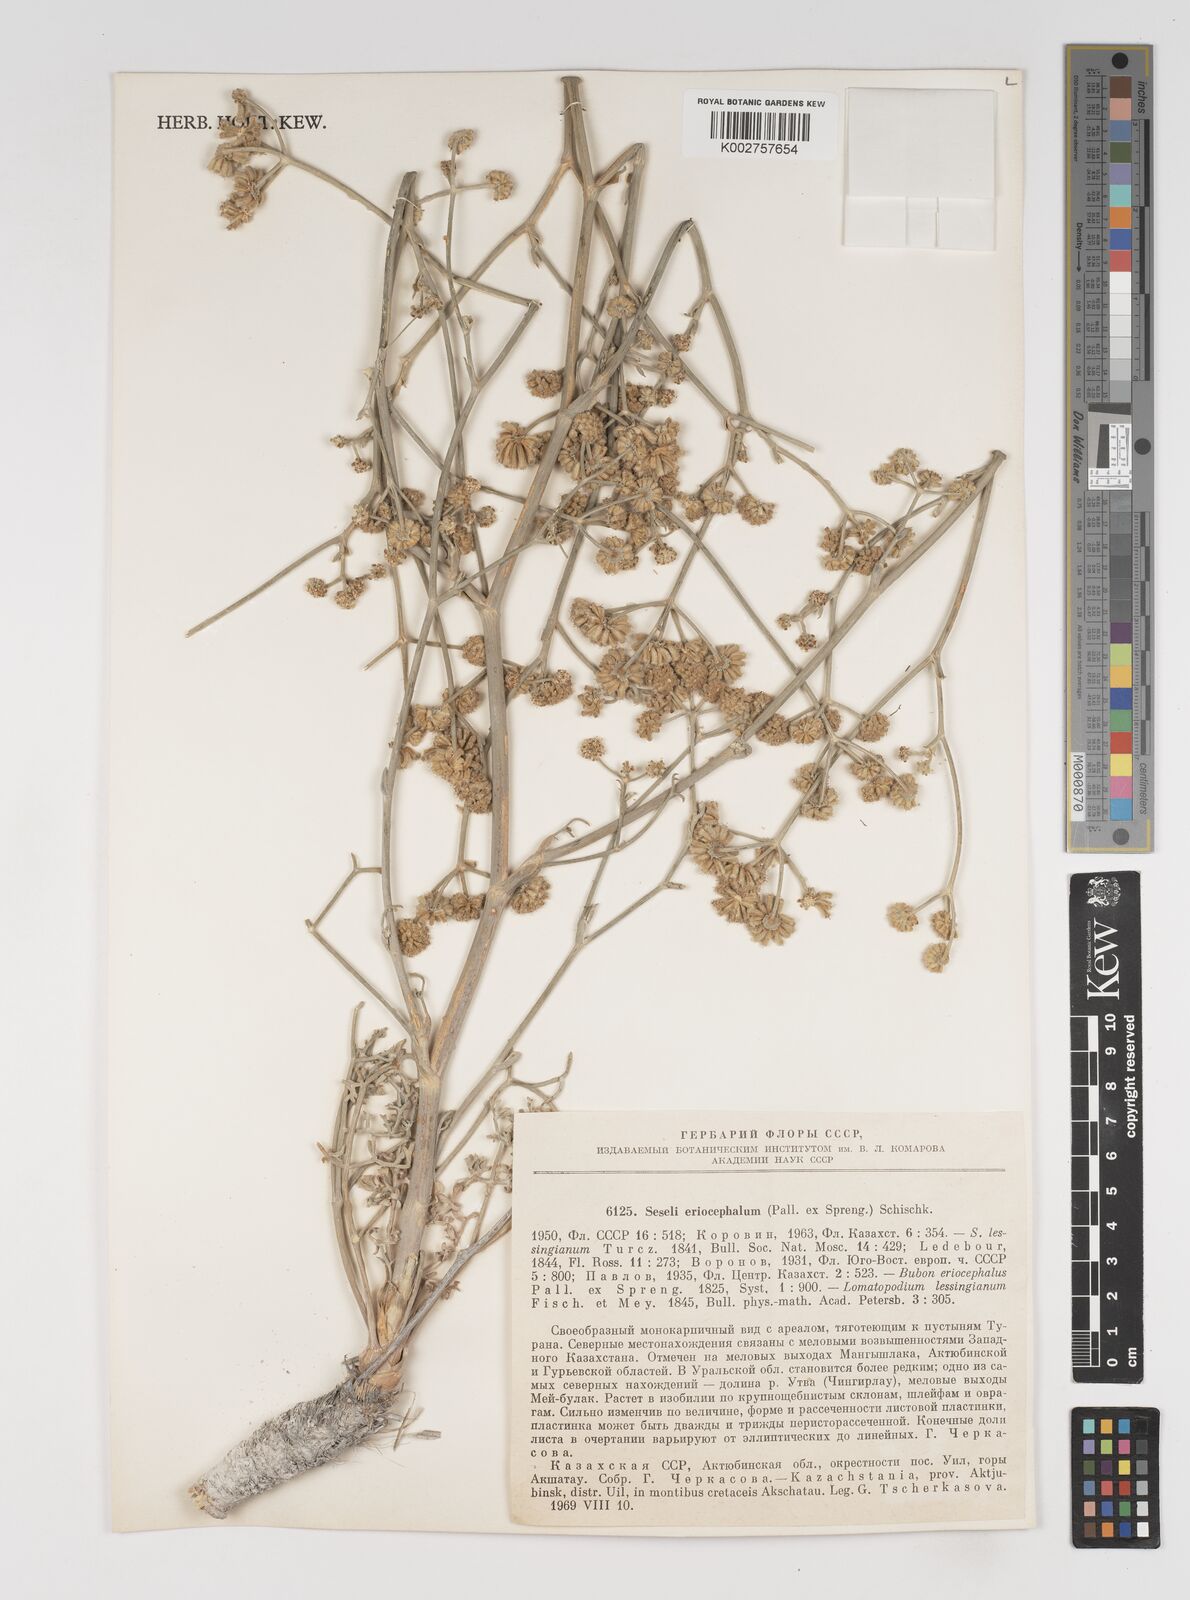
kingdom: Plantae
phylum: Tracheophyta
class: Magnoliopsida
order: Apiales
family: Apiaceae
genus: Seseli
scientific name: Seseli eriocephalum
